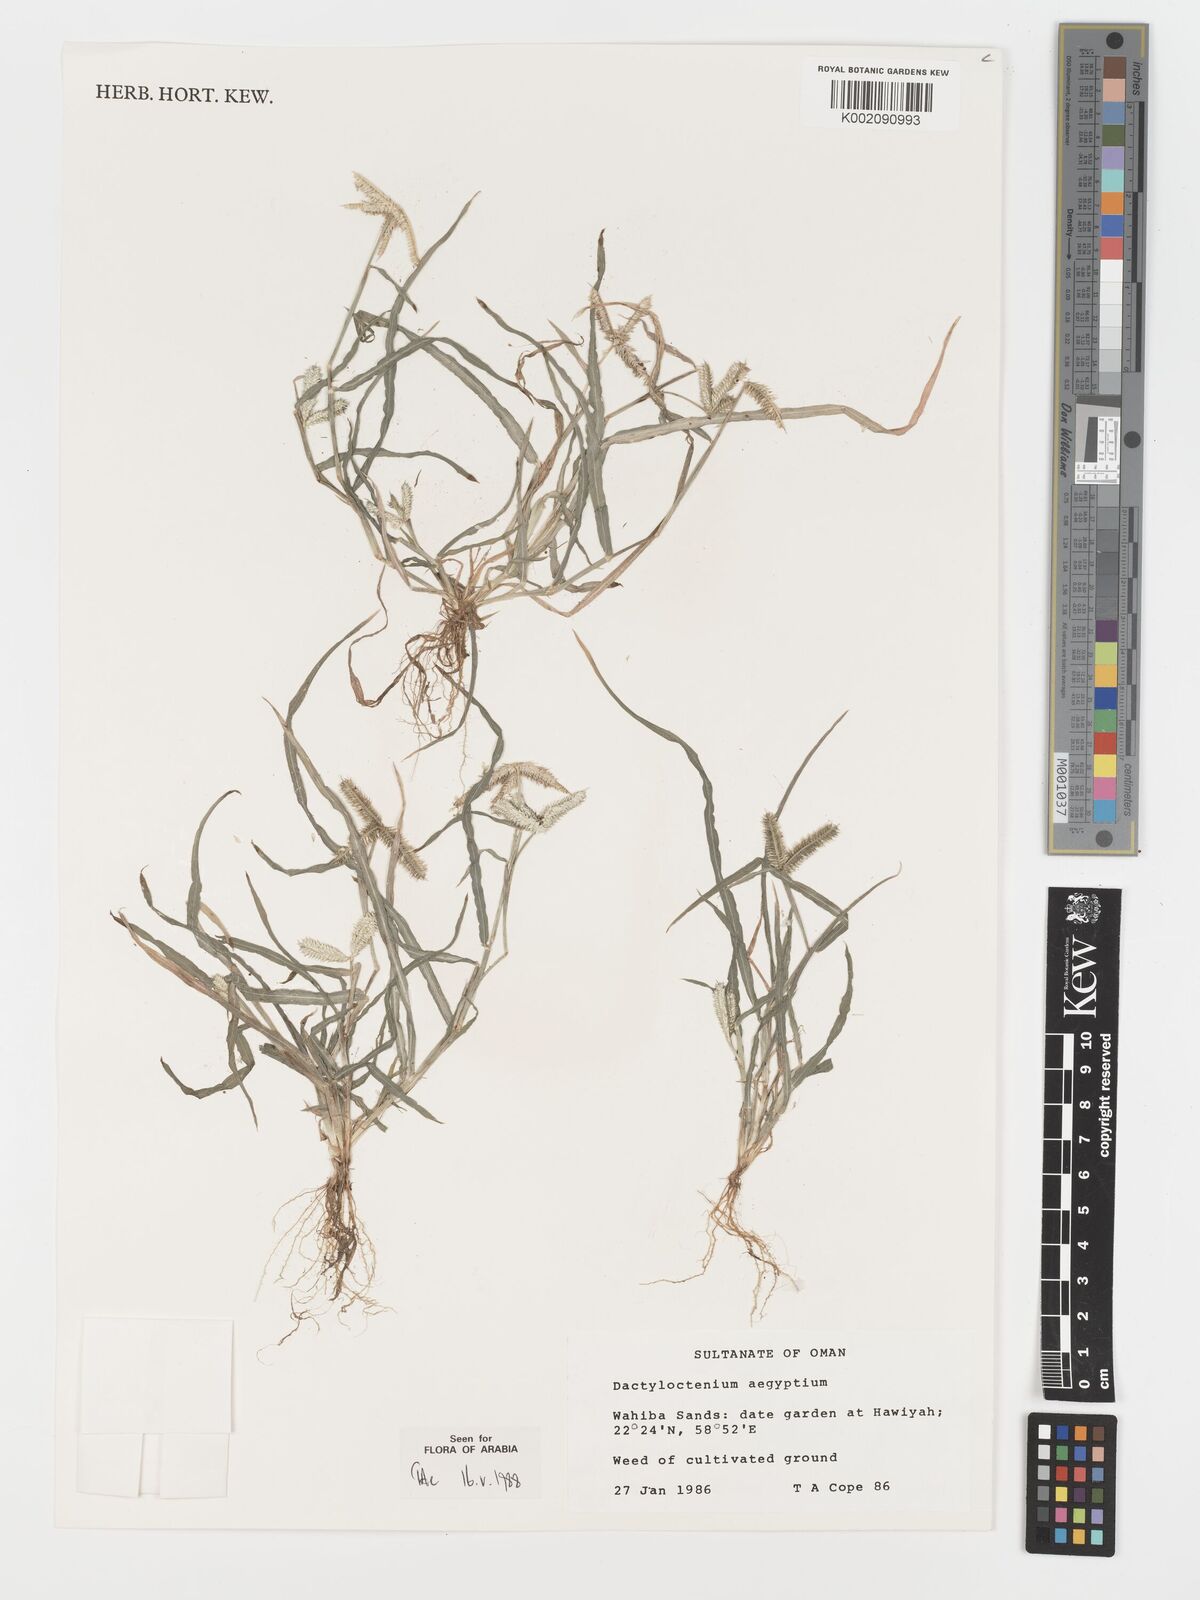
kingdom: Plantae
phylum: Tracheophyta
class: Liliopsida
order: Poales
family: Poaceae
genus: Dactyloctenium
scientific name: Dactyloctenium aegyptium
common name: Egyptian grass
